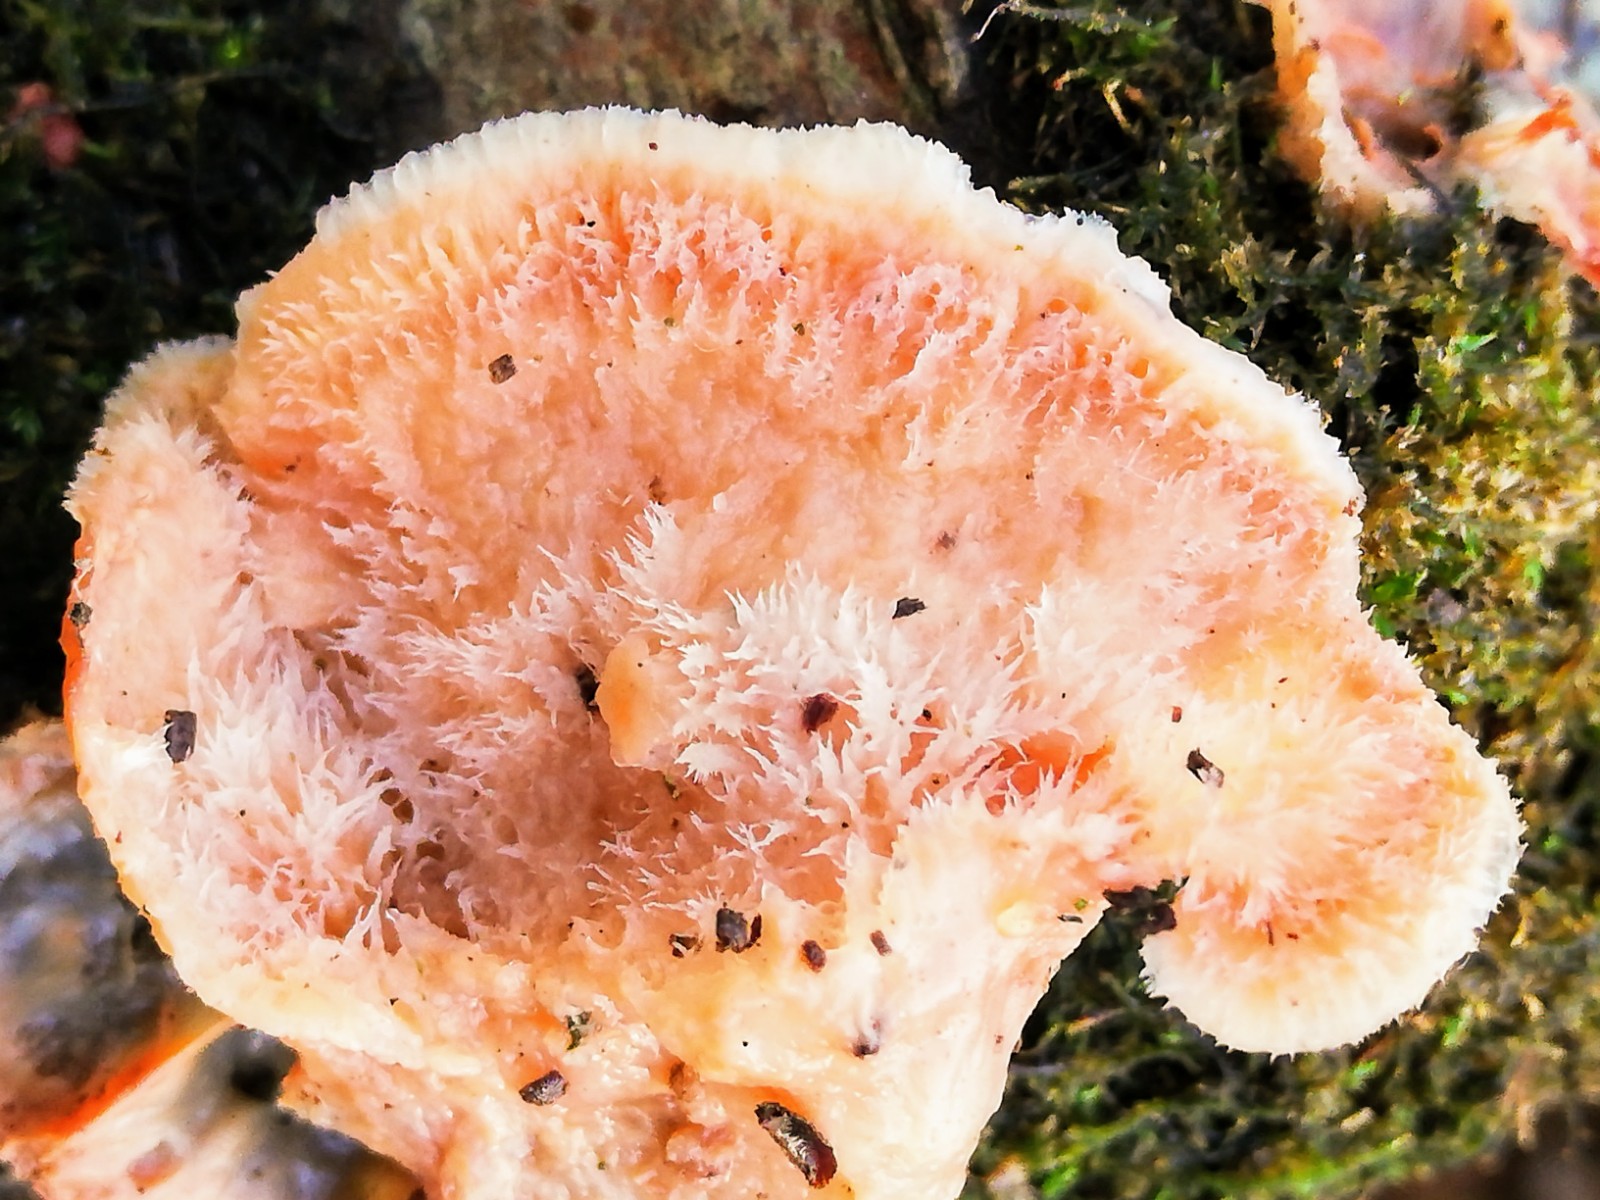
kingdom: Fungi
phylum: Basidiomycota
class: Agaricomycetes
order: Polyporales
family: Meruliaceae
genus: Phlebia
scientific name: Phlebia tremellosa
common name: bævrende åresvamp
